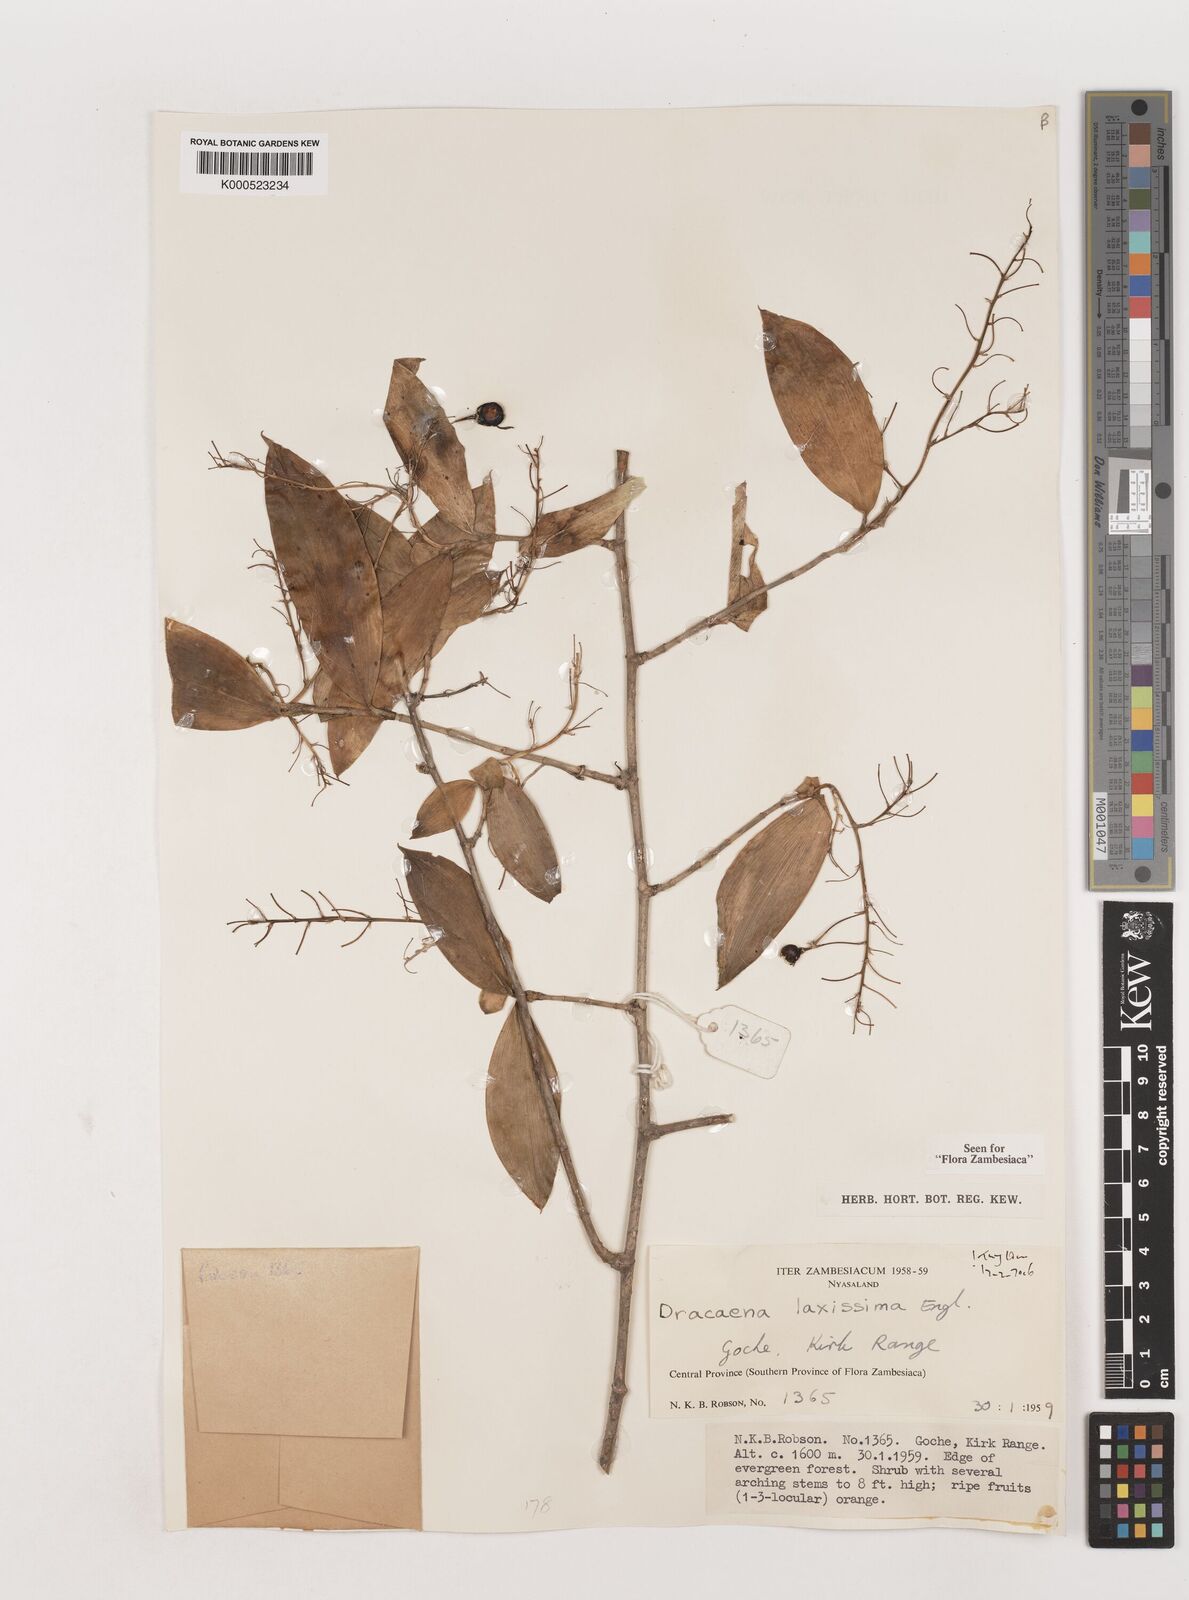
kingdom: Plantae
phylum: Tracheophyta
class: Liliopsida
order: Asparagales
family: Asparagaceae
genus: Dracaena
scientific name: Dracaena laxissima
